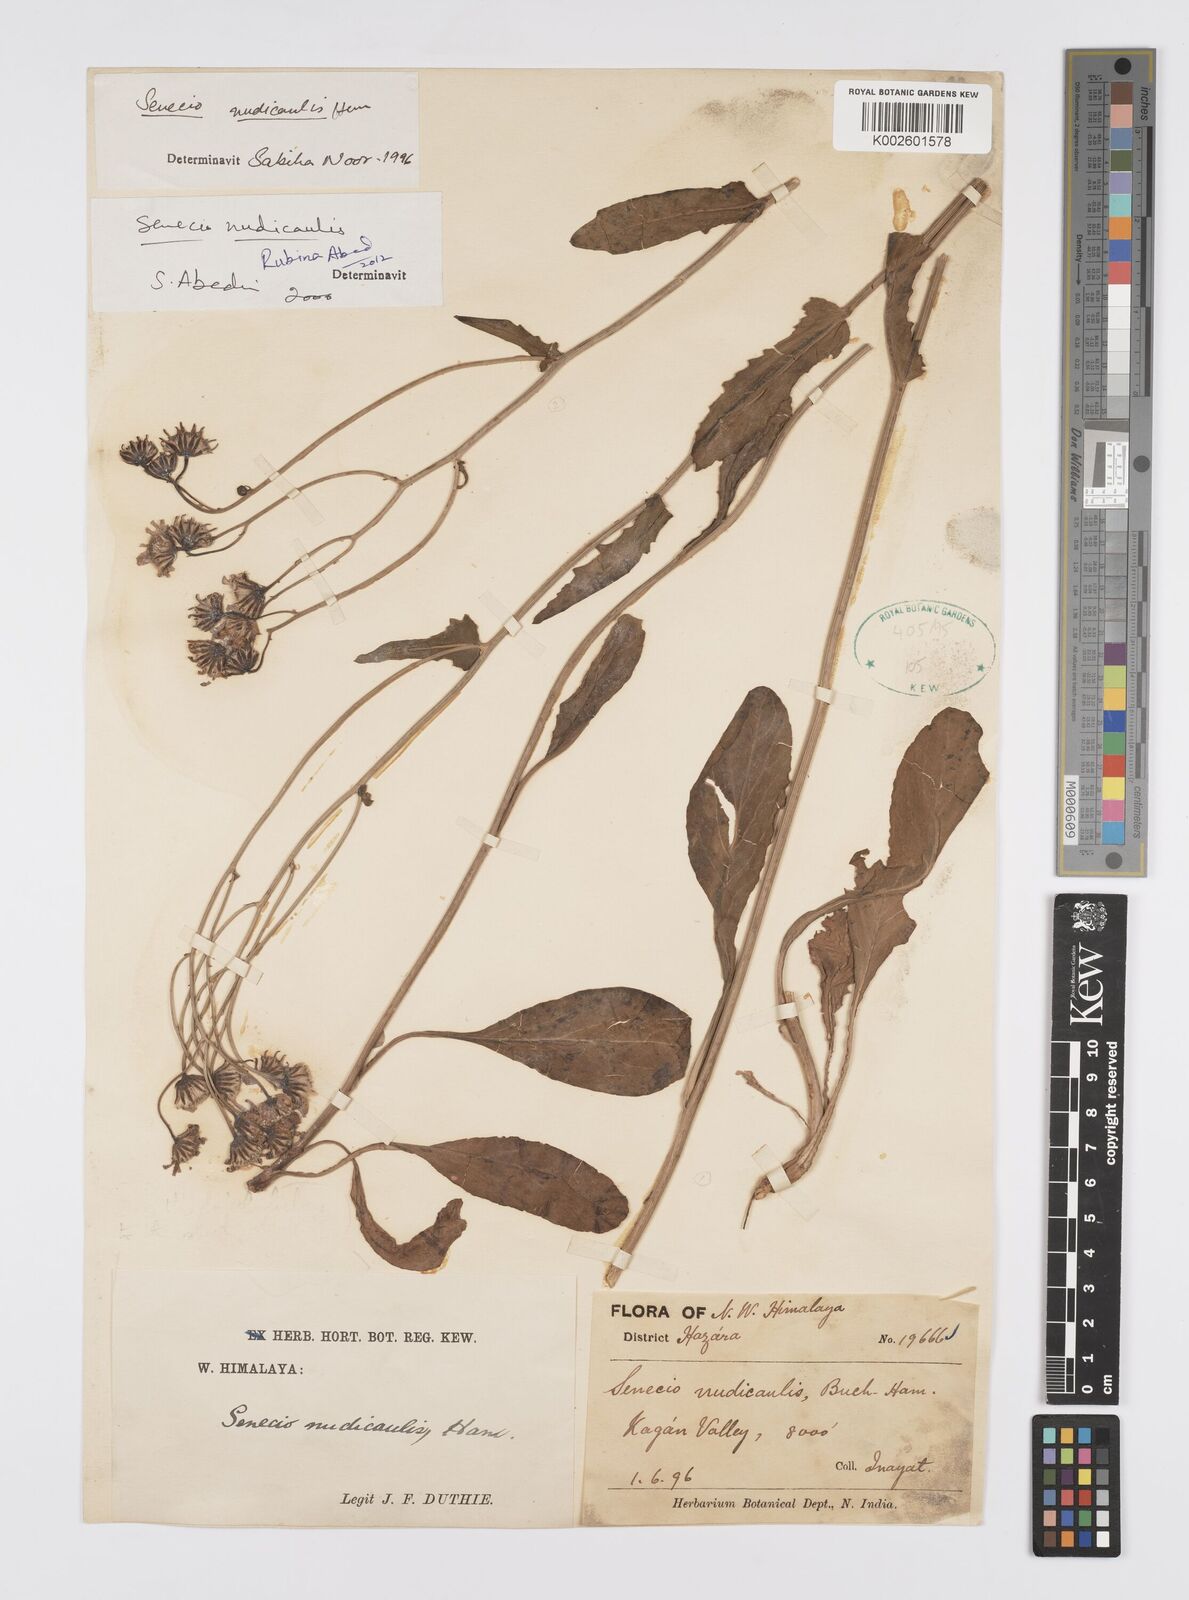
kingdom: Plantae
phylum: Tracheophyta
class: Magnoliopsida
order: Asterales
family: Asteraceae
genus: Jacobaea
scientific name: Jacobaea nudicaulis
